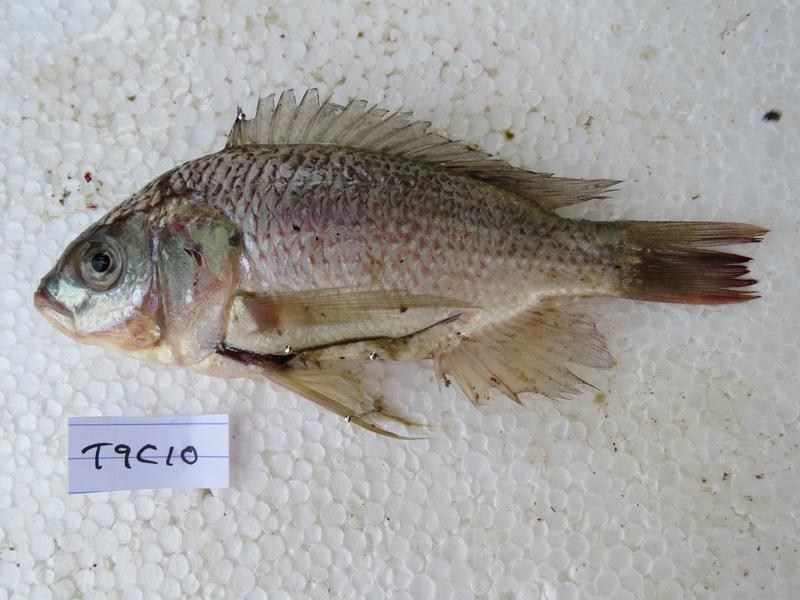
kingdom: Animalia
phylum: Chordata
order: Perciformes
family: Cichlidae
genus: Oreochromis
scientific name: Oreochromis esculentus
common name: Carp
